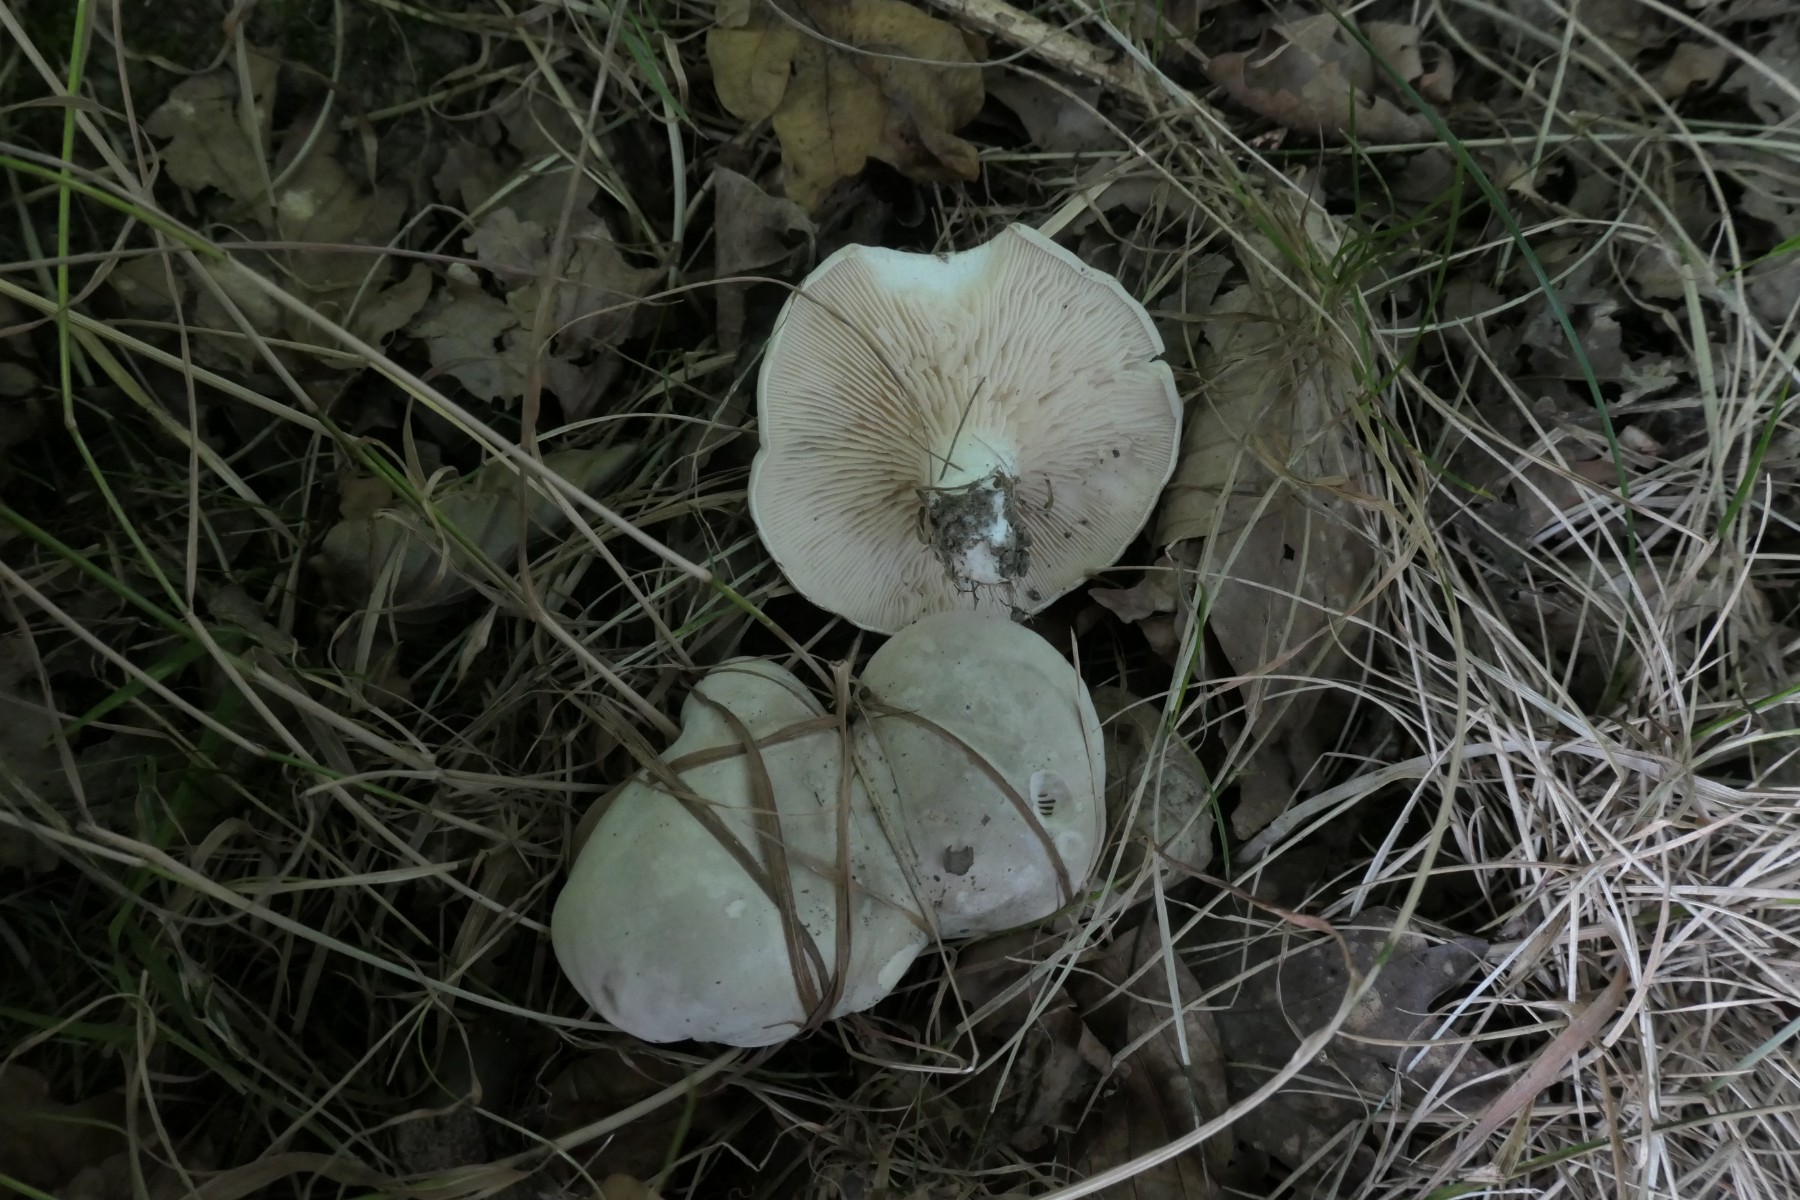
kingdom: Fungi
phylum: Basidiomycota
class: Agaricomycetes
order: Agaricales
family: Entolomataceae
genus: Clitopilus
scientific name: Clitopilus prunulus
